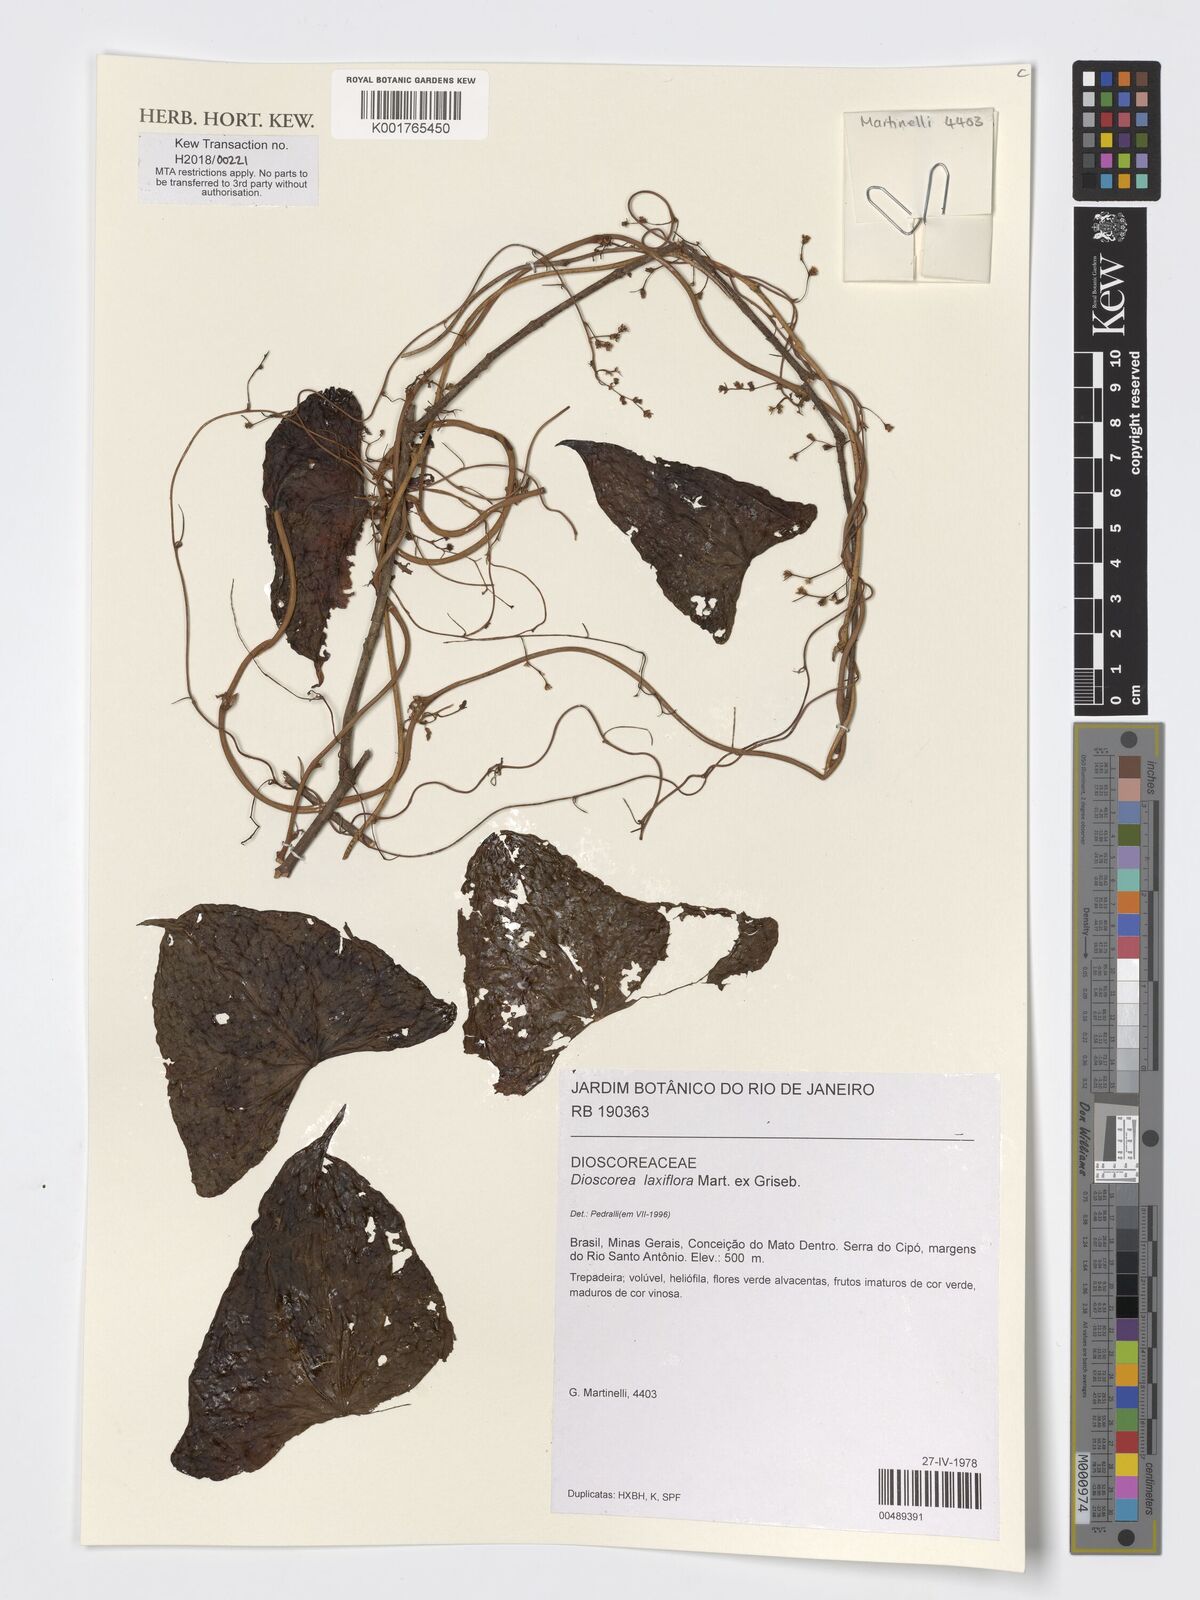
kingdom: Plantae
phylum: Tracheophyta
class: Liliopsida
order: Dioscoreales
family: Dioscoreaceae
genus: Dioscorea
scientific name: Dioscorea laxiflora
